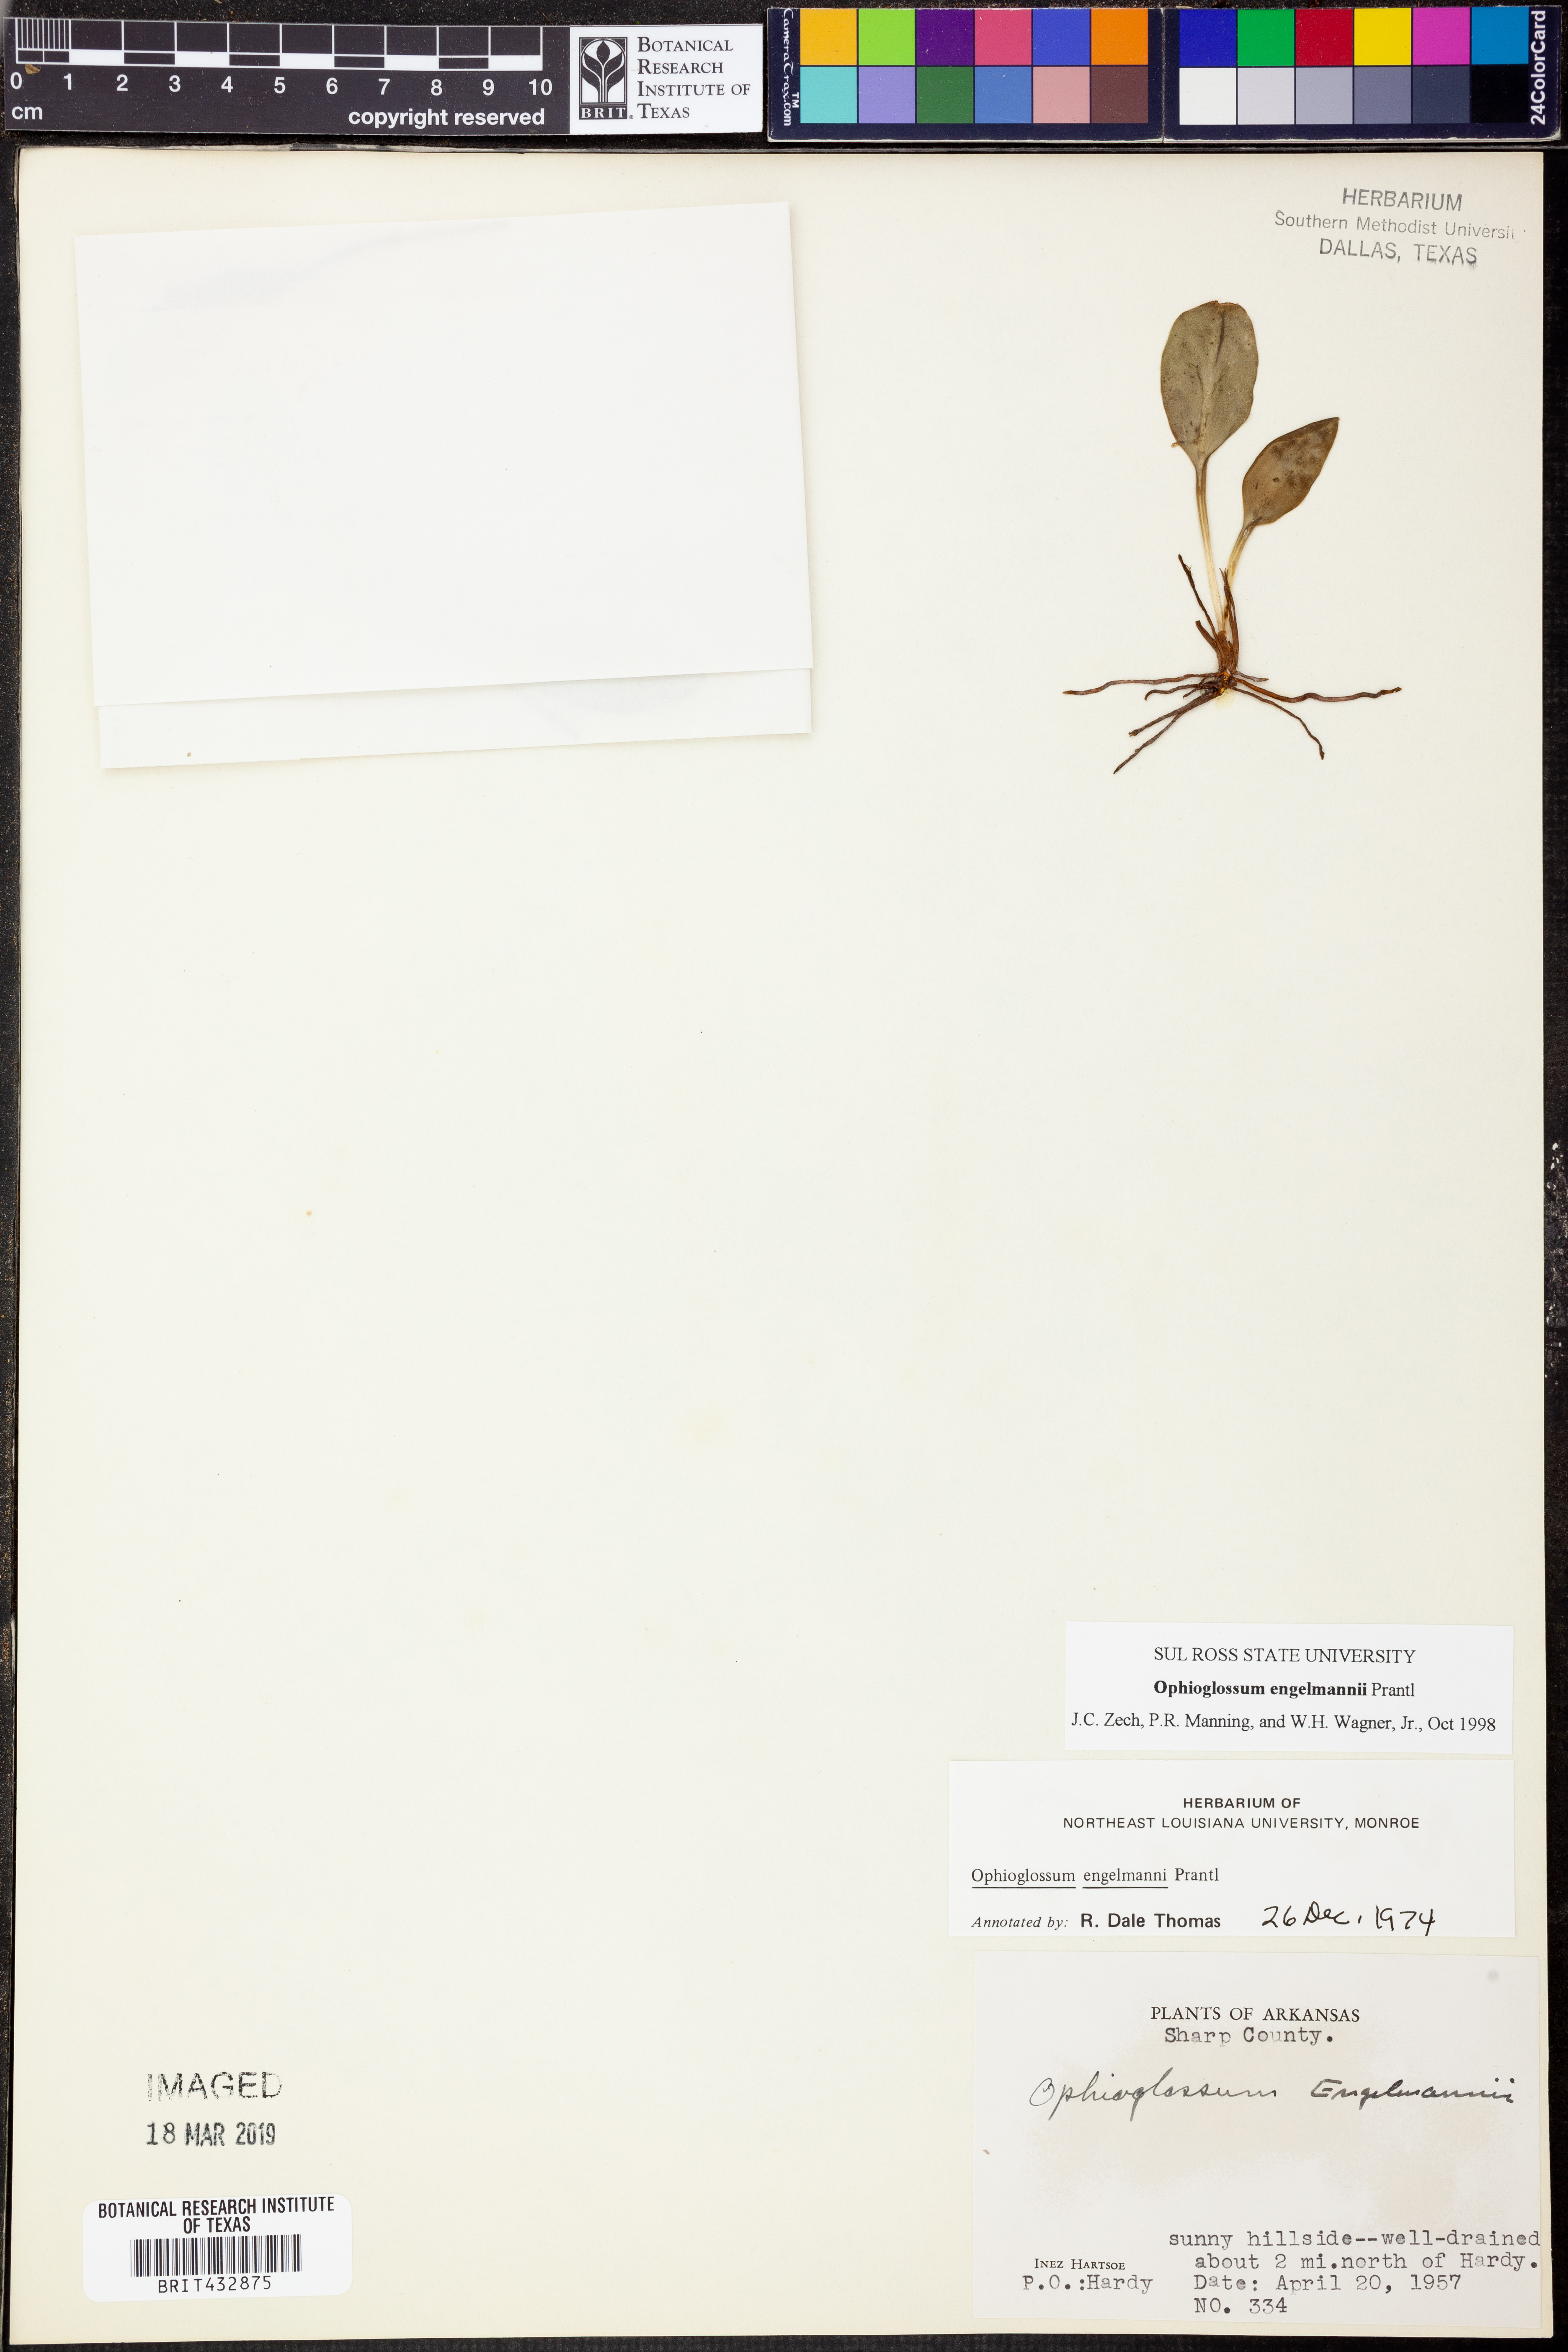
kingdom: Plantae
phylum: Tracheophyta
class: Polypodiopsida
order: Ophioglossales
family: Ophioglossaceae
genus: Ophioglossum
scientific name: Ophioglossum engelmannii
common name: Limestone adder's-tongue
